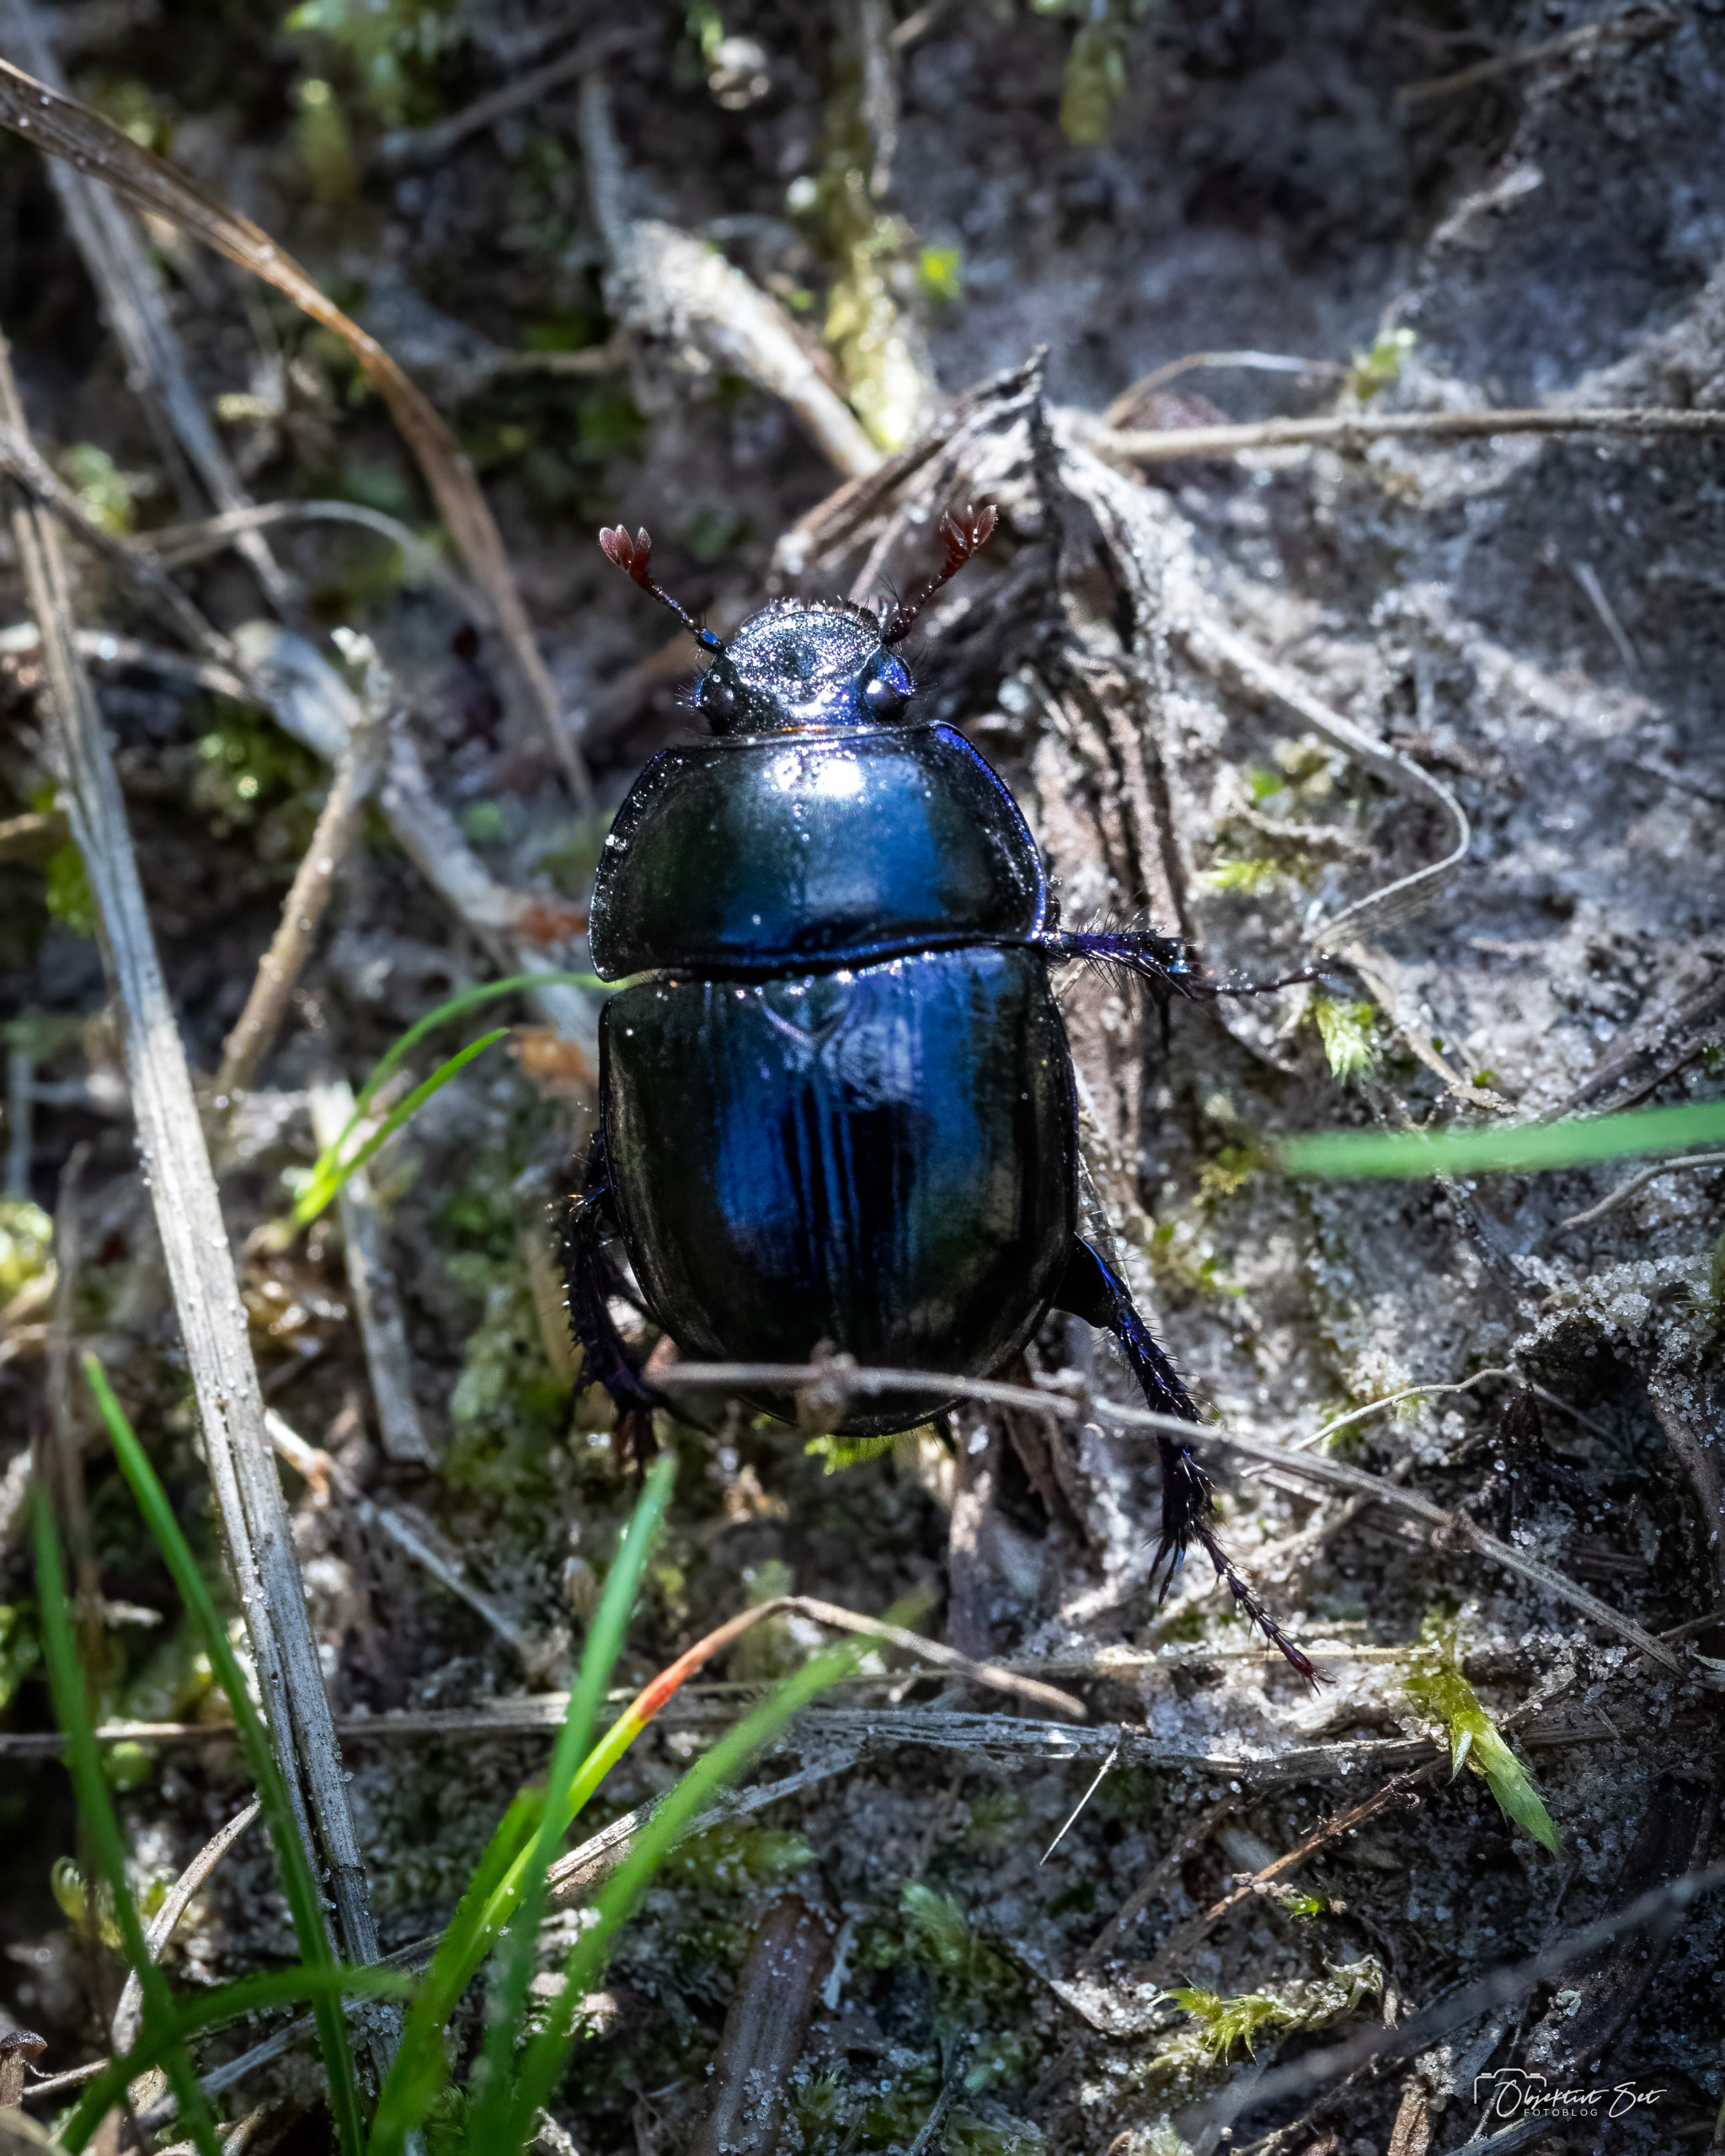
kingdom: Animalia
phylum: Arthropoda
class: Insecta
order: Coleoptera
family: Geotrupidae
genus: Anoplotrupes
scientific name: Anoplotrupes stercorosus
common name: Skovskarnbasse
